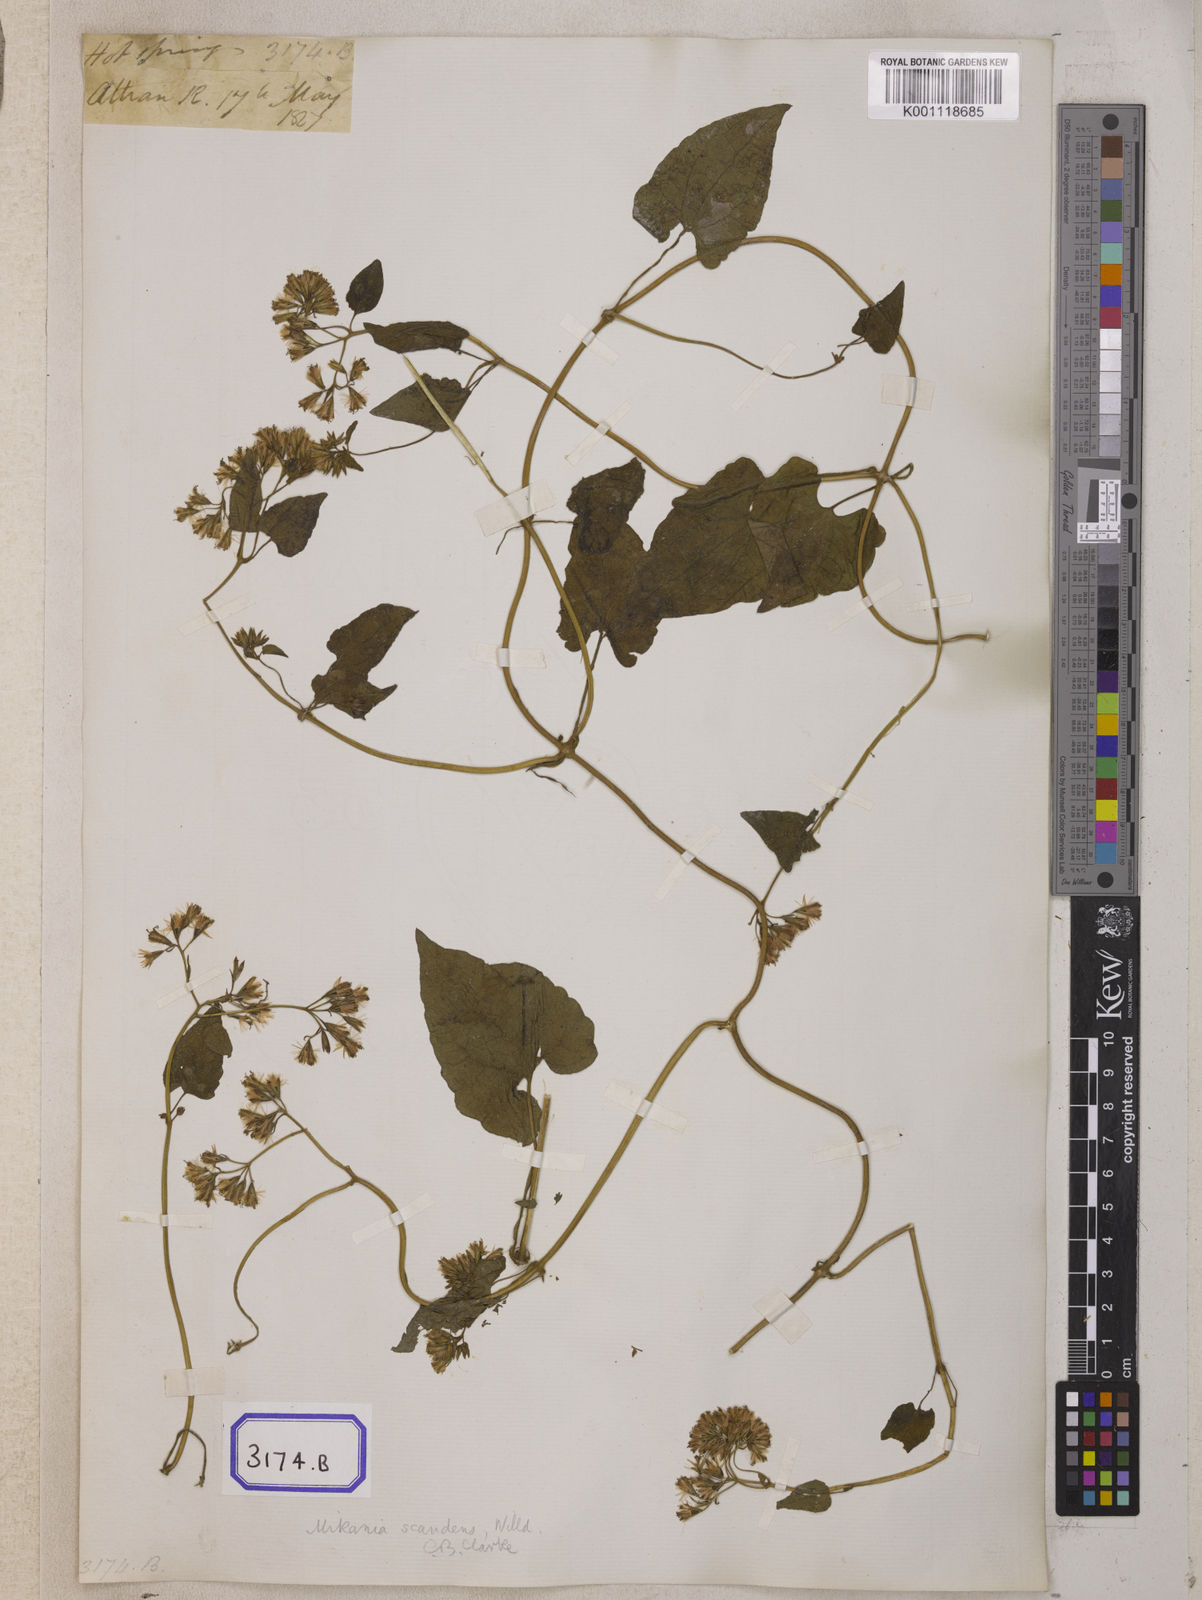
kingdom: Plantae
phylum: Tracheophyta
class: Magnoliopsida
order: Asterales
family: Asteraceae
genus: Mikania
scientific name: Mikania
